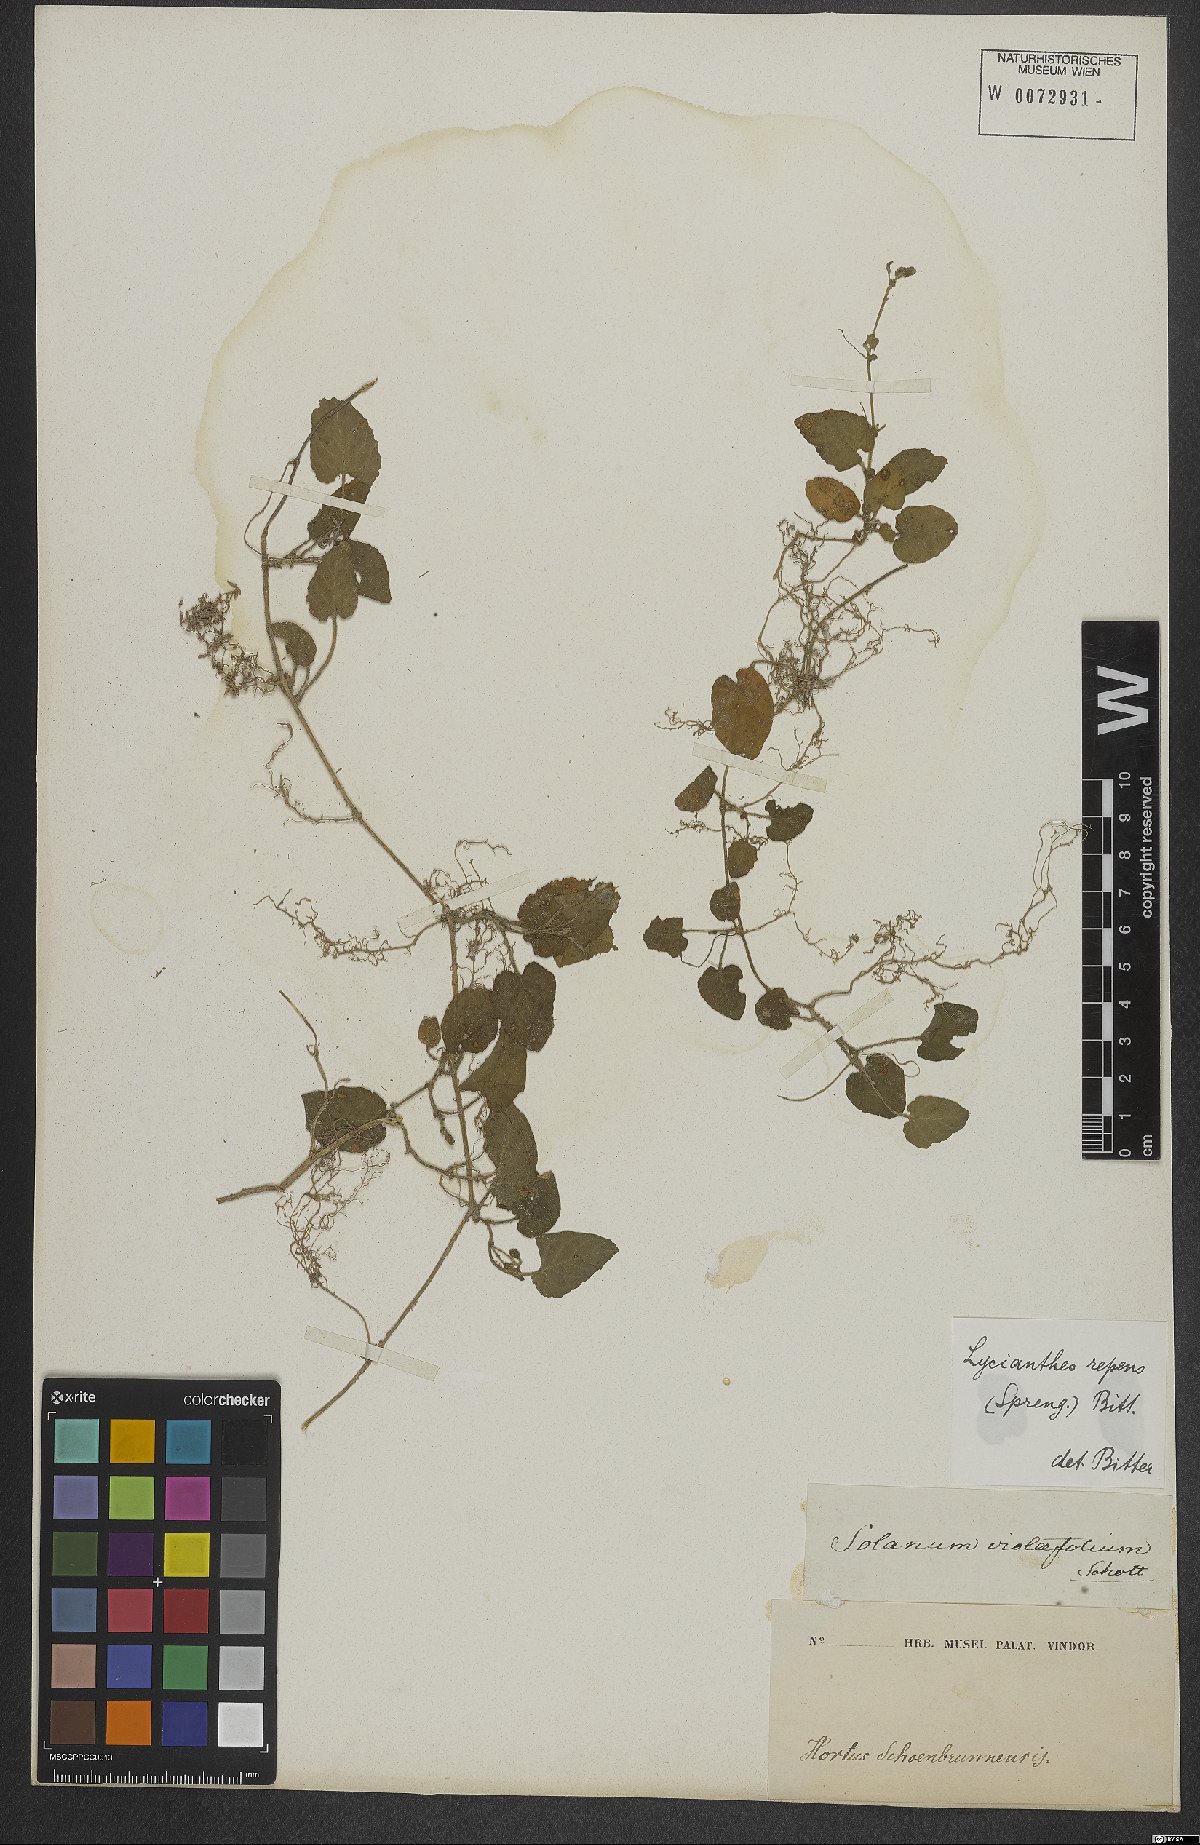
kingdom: Plantae
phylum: Tracheophyta
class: Magnoliopsida
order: Solanales
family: Solanaceae
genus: Lycianthes
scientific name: Lycianthes repens
